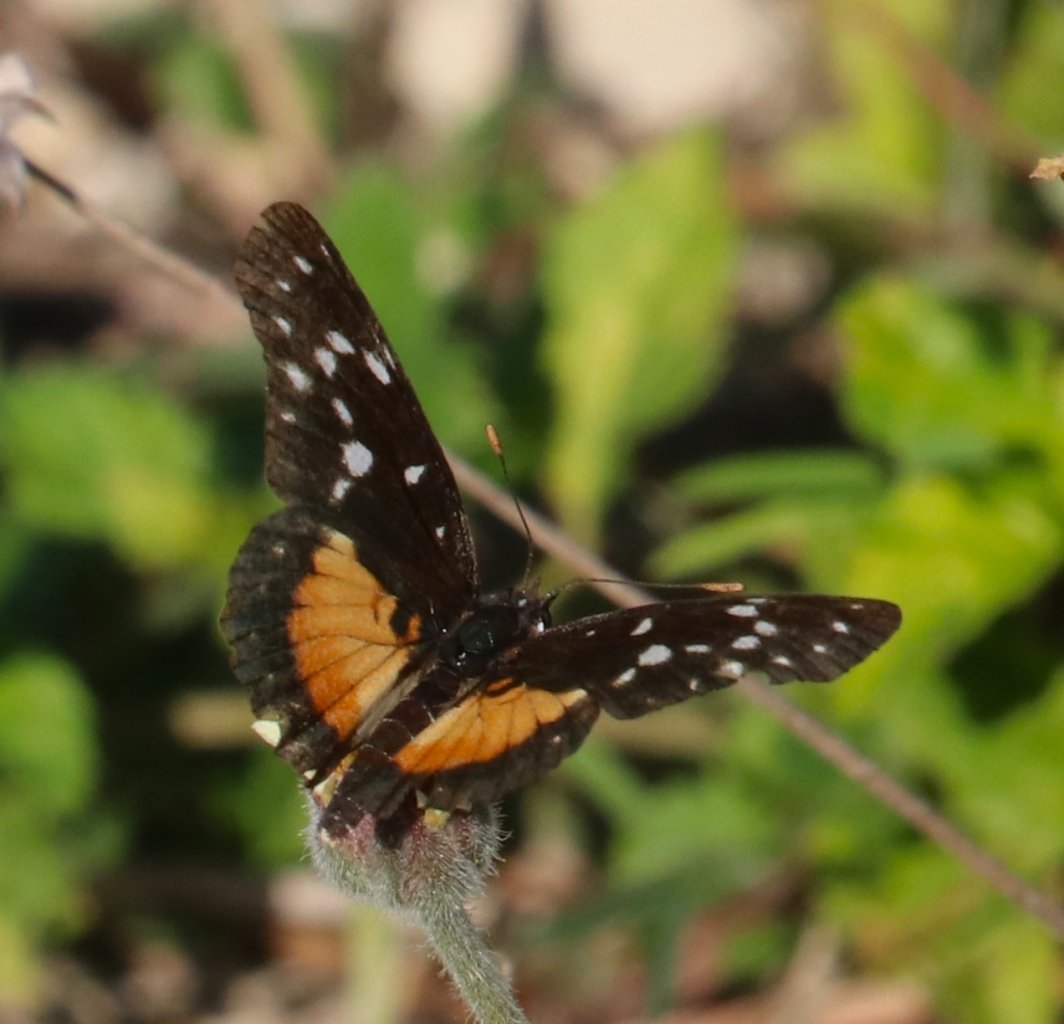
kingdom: Animalia
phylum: Arthropoda
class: Insecta
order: Lepidoptera
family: Nymphalidae
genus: Chlosyne
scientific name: Chlosyne rosita
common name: Rosita Patch
